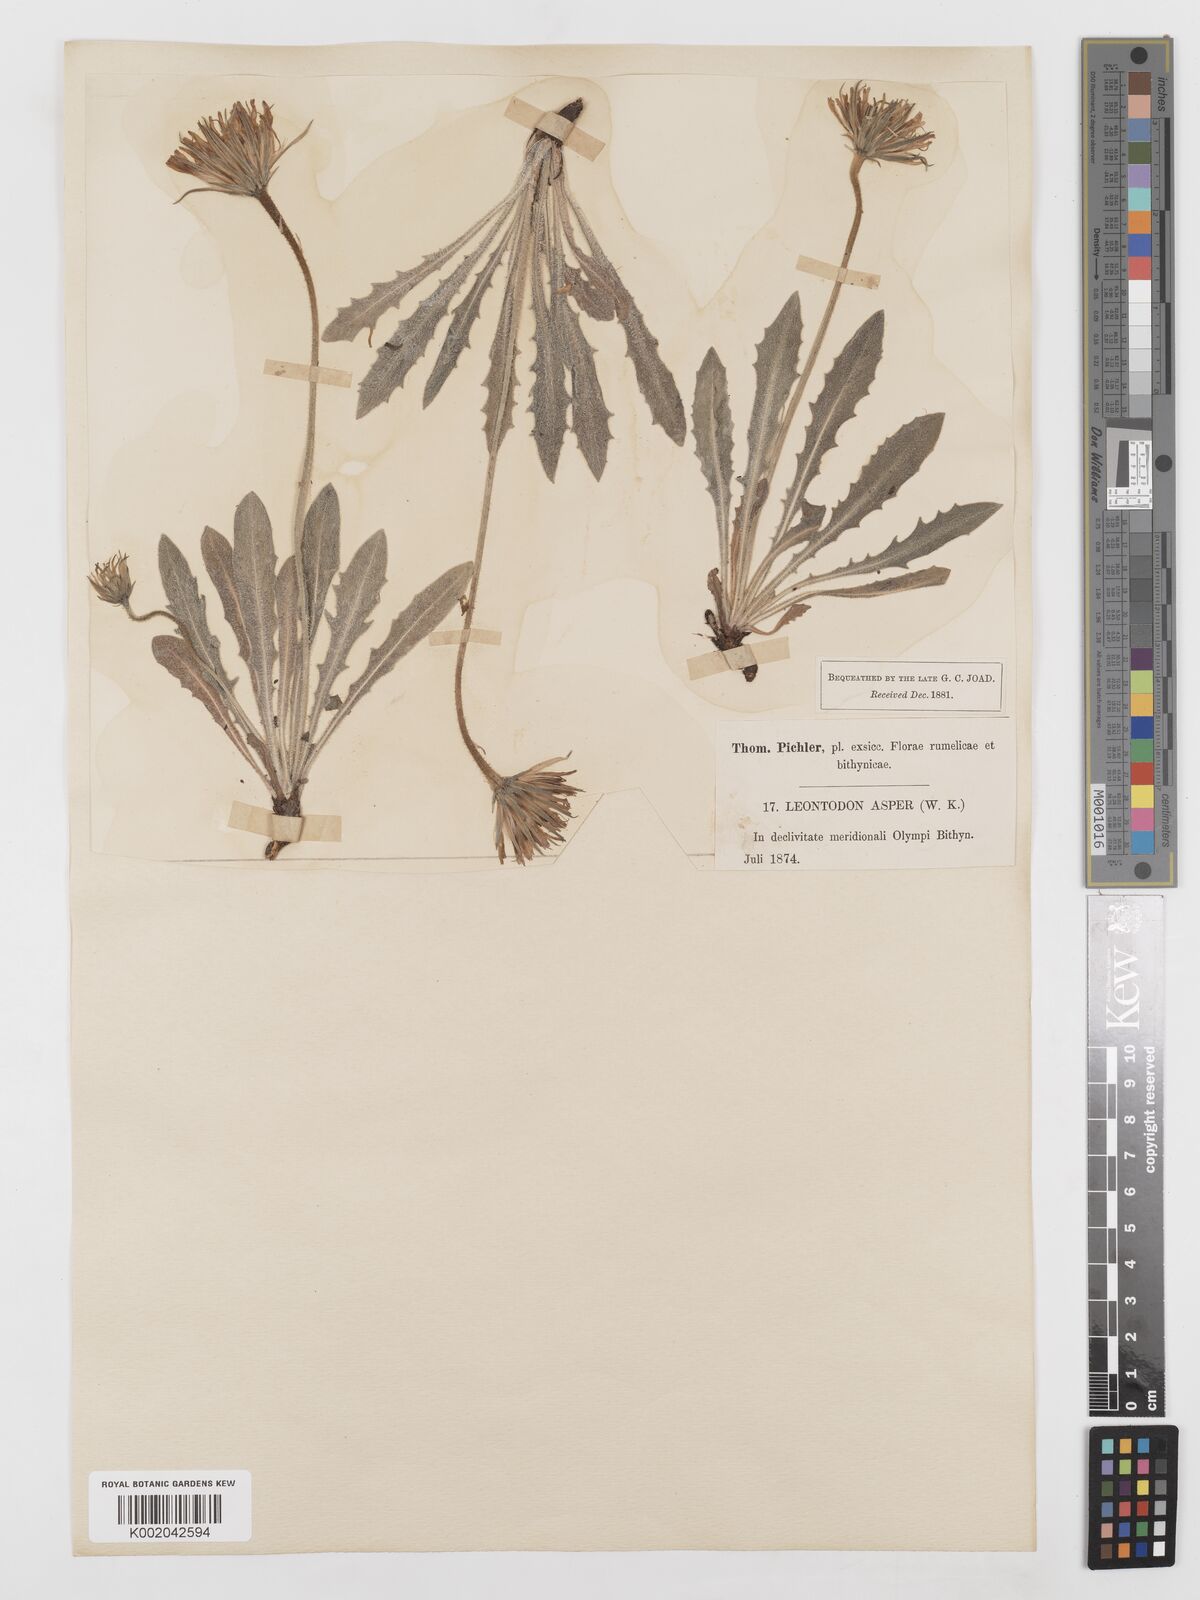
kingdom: Plantae
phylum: Tracheophyta
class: Magnoliopsida
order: Asterales
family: Asteraceae
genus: Leontodon
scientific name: Leontodon
